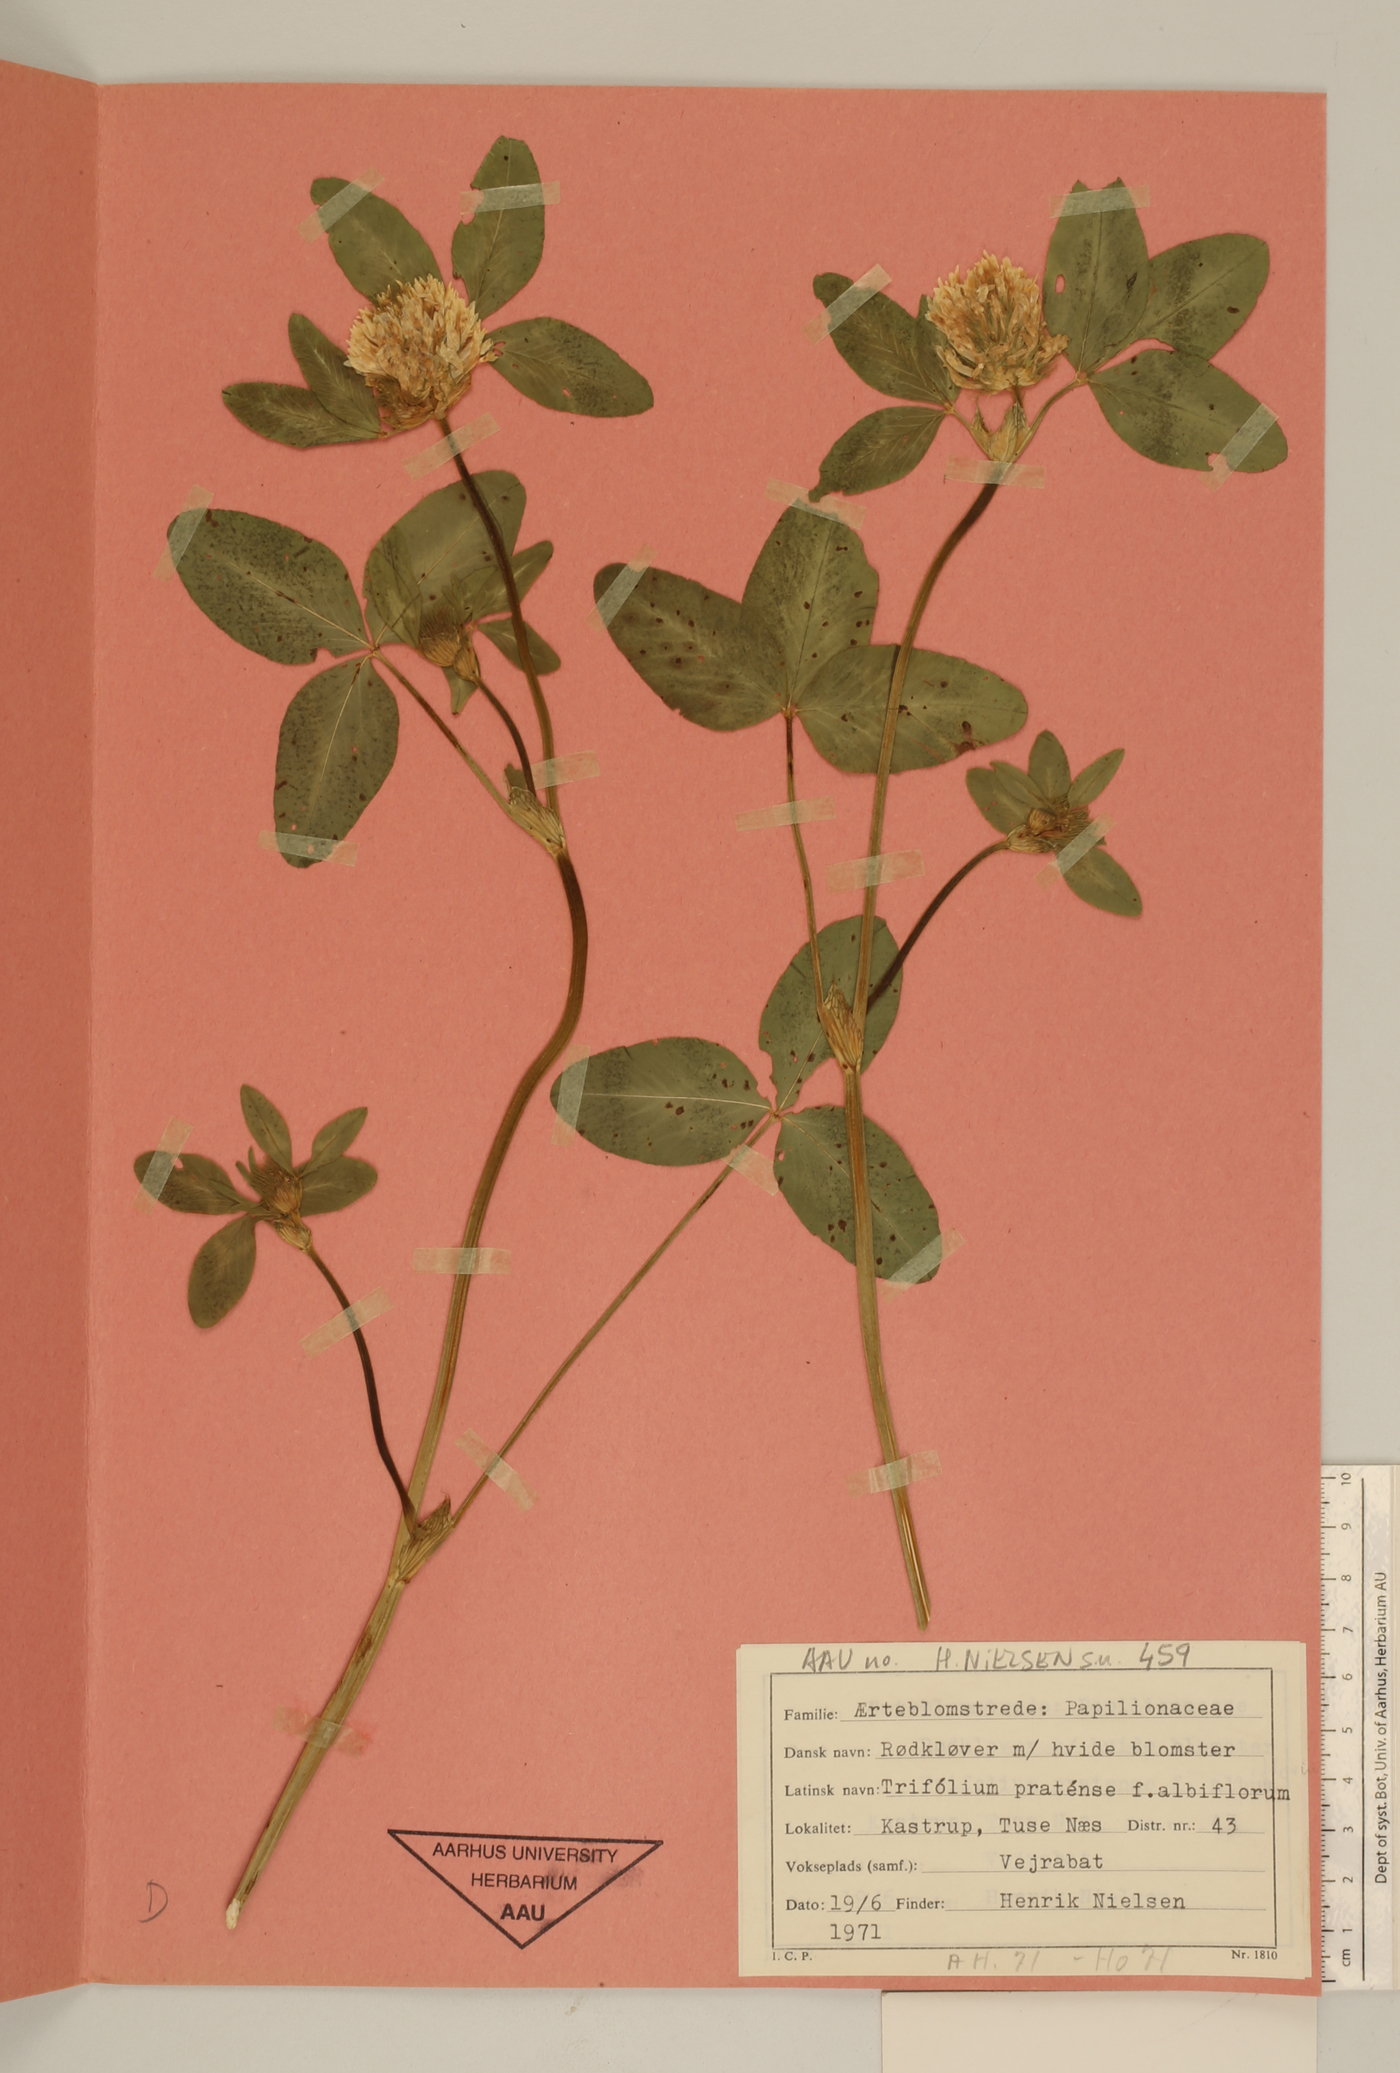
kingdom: Plantae
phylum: Tracheophyta
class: Magnoliopsida
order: Fabales
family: Fabaceae
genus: Trifolium
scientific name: Trifolium pratense
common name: Red clover
